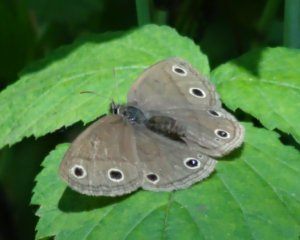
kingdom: Animalia
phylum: Arthropoda
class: Insecta
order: Lepidoptera
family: Nymphalidae
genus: Euptychia
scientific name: Euptychia cymela
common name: Little Wood Satyr
